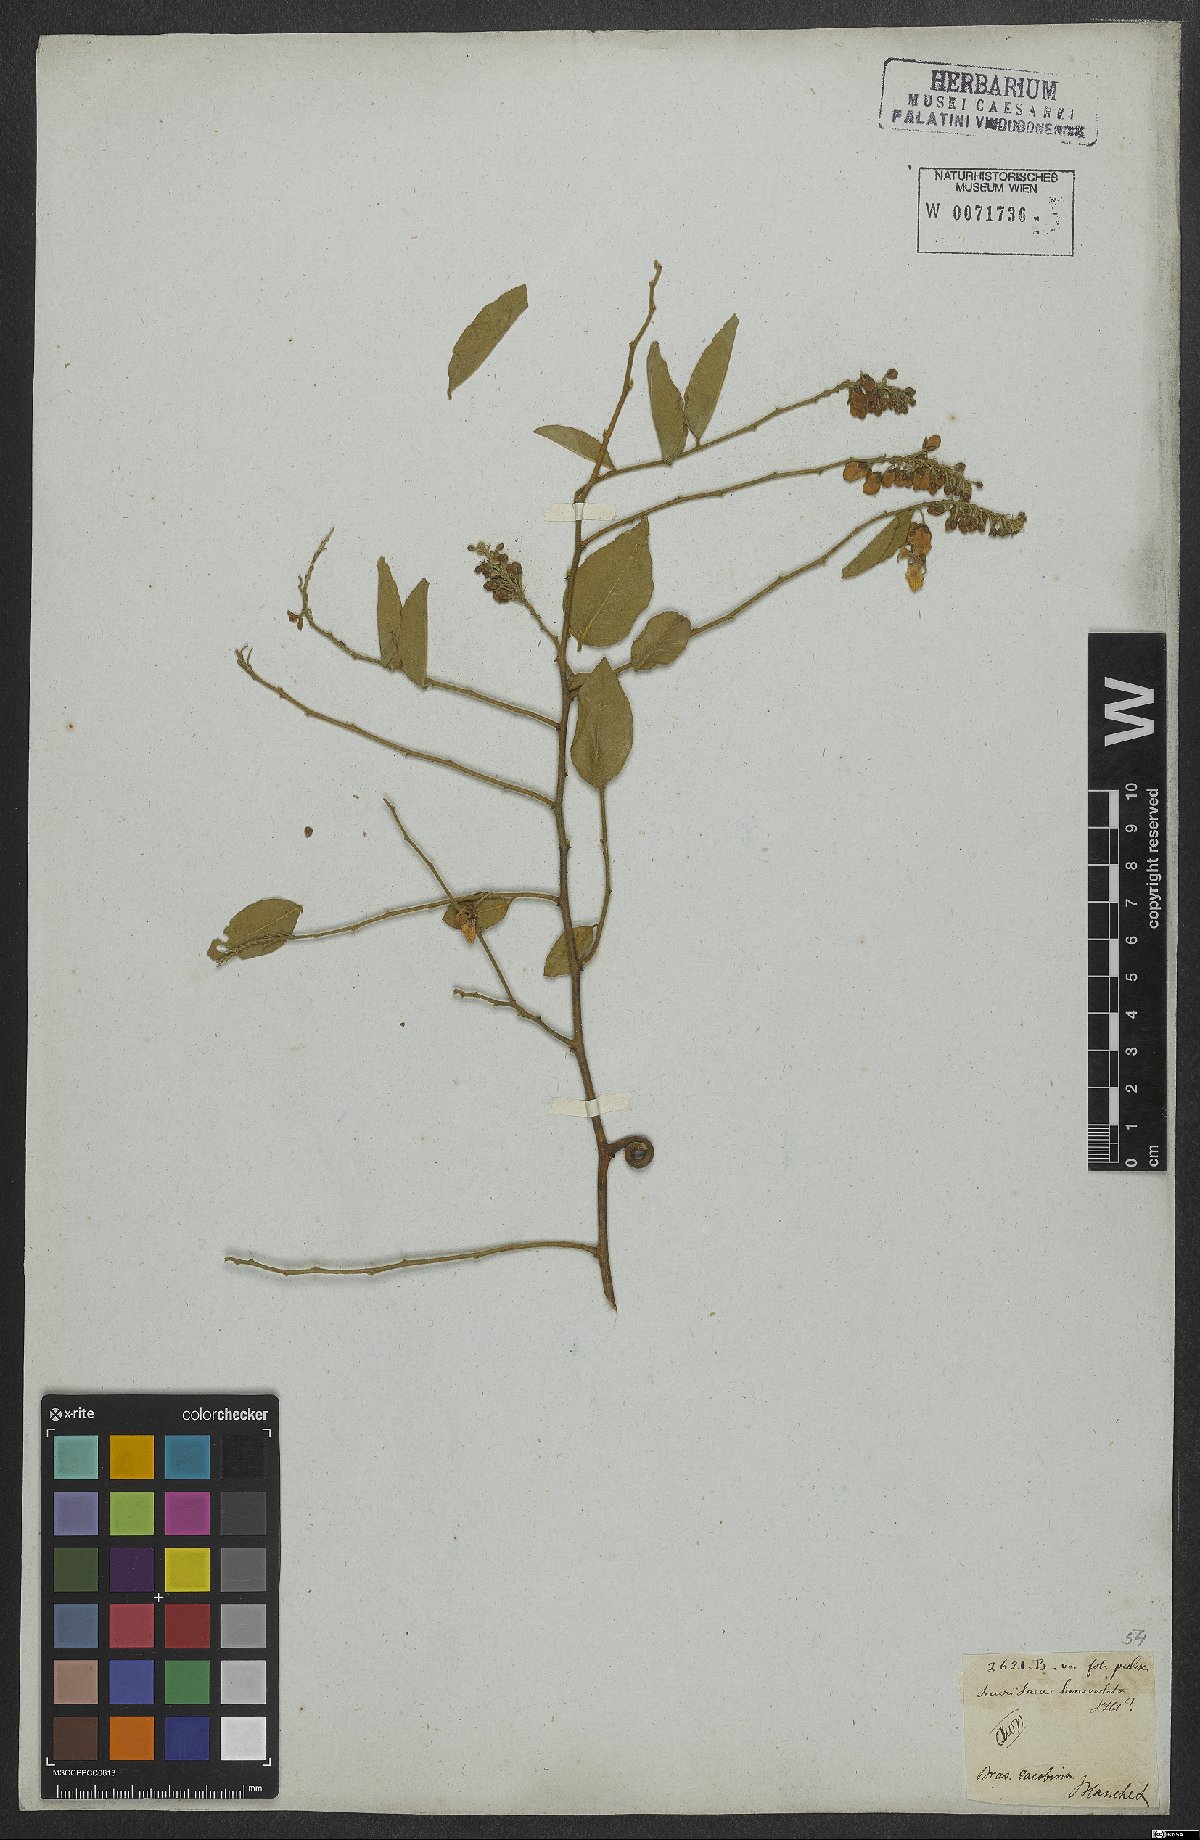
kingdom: Plantae
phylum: Tracheophyta
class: Magnoliopsida
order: Fabales
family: Polygalaceae
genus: Securidaca
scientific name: Securidaca coriacea
